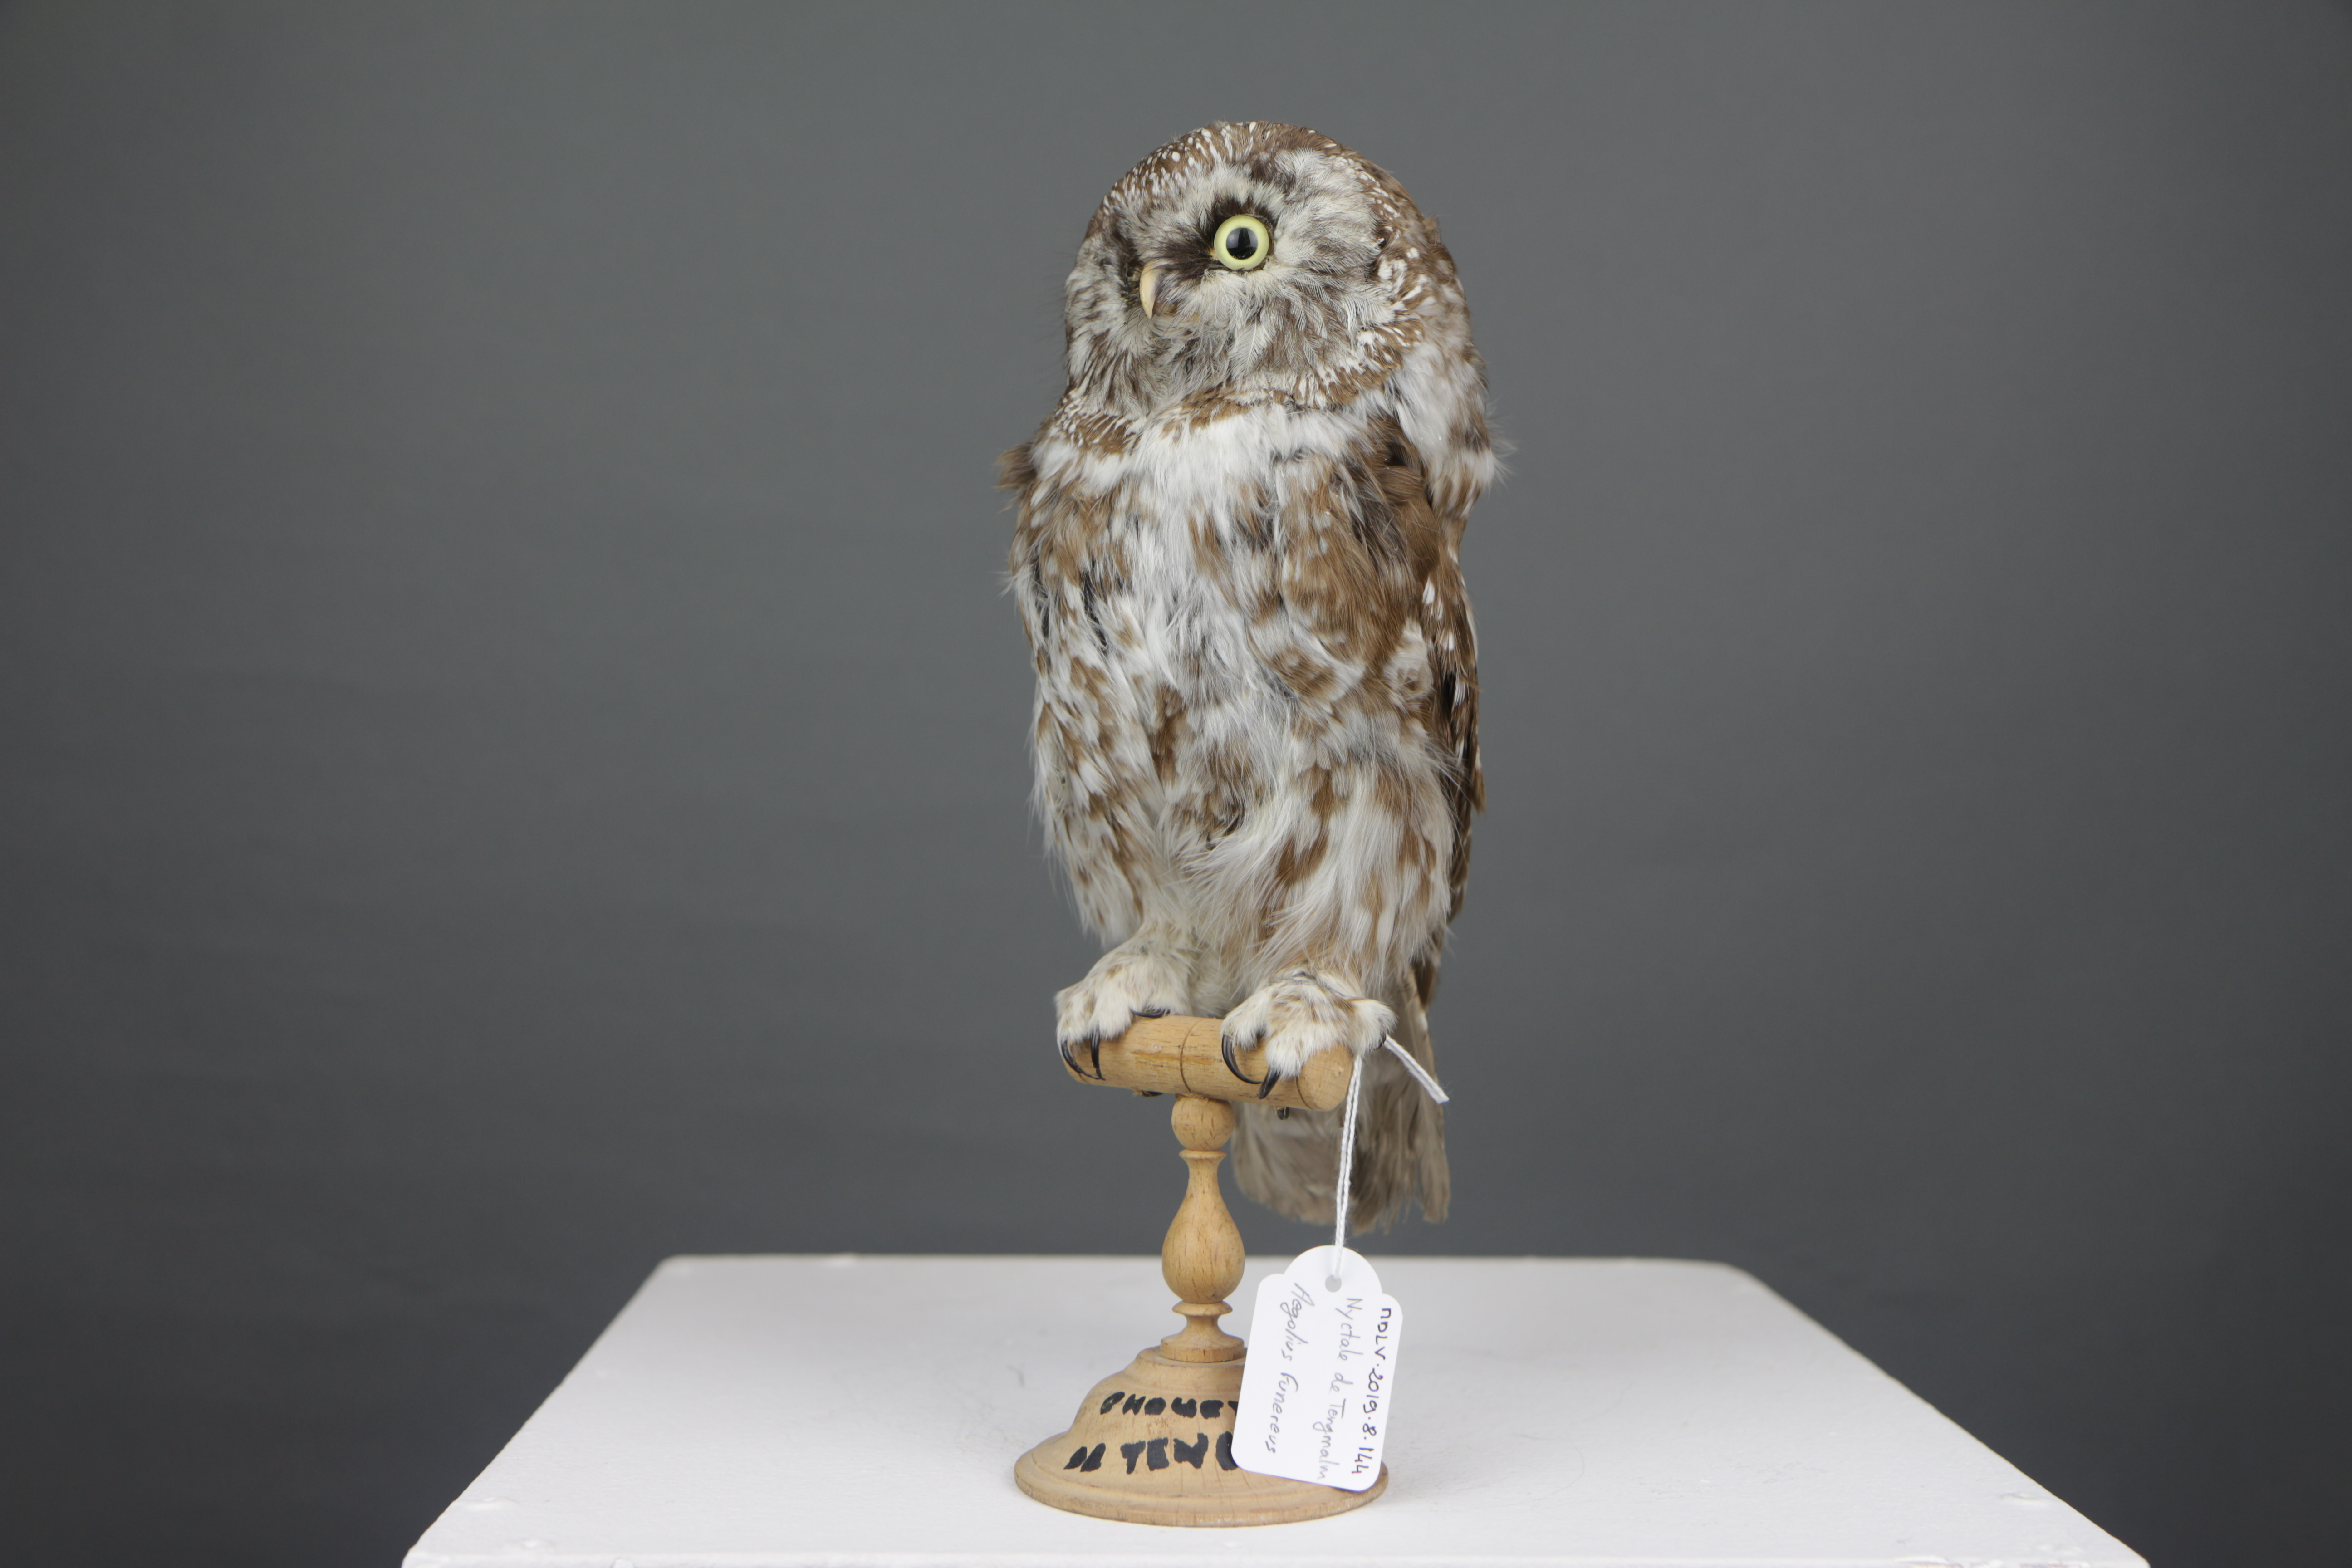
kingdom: Animalia
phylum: Chordata
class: Aves
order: Strigiformes
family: Strigidae
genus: Aegolius
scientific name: Aegolius funereus
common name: Boreal owl
